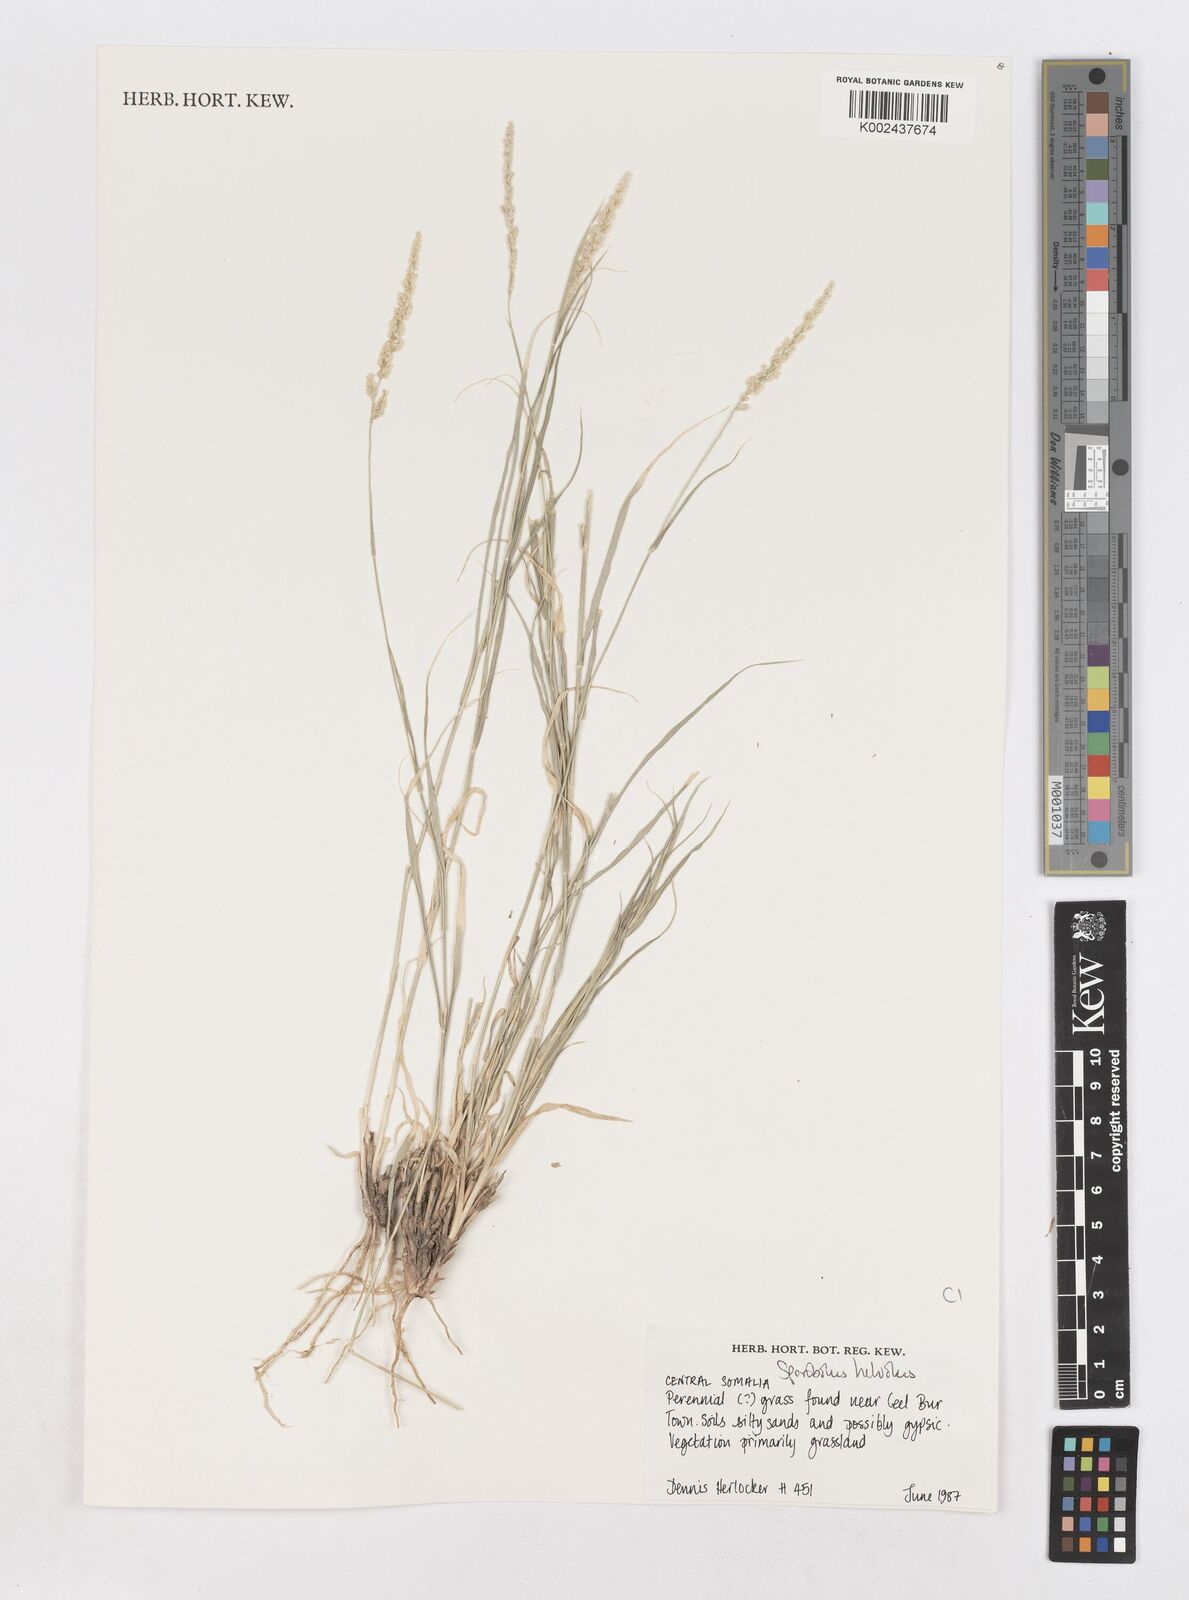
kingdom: Plantae
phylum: Tracheophyta
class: Liliopsida
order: Poales
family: Poaceae
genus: Sporobolus
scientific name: Sporobolus helvolus
